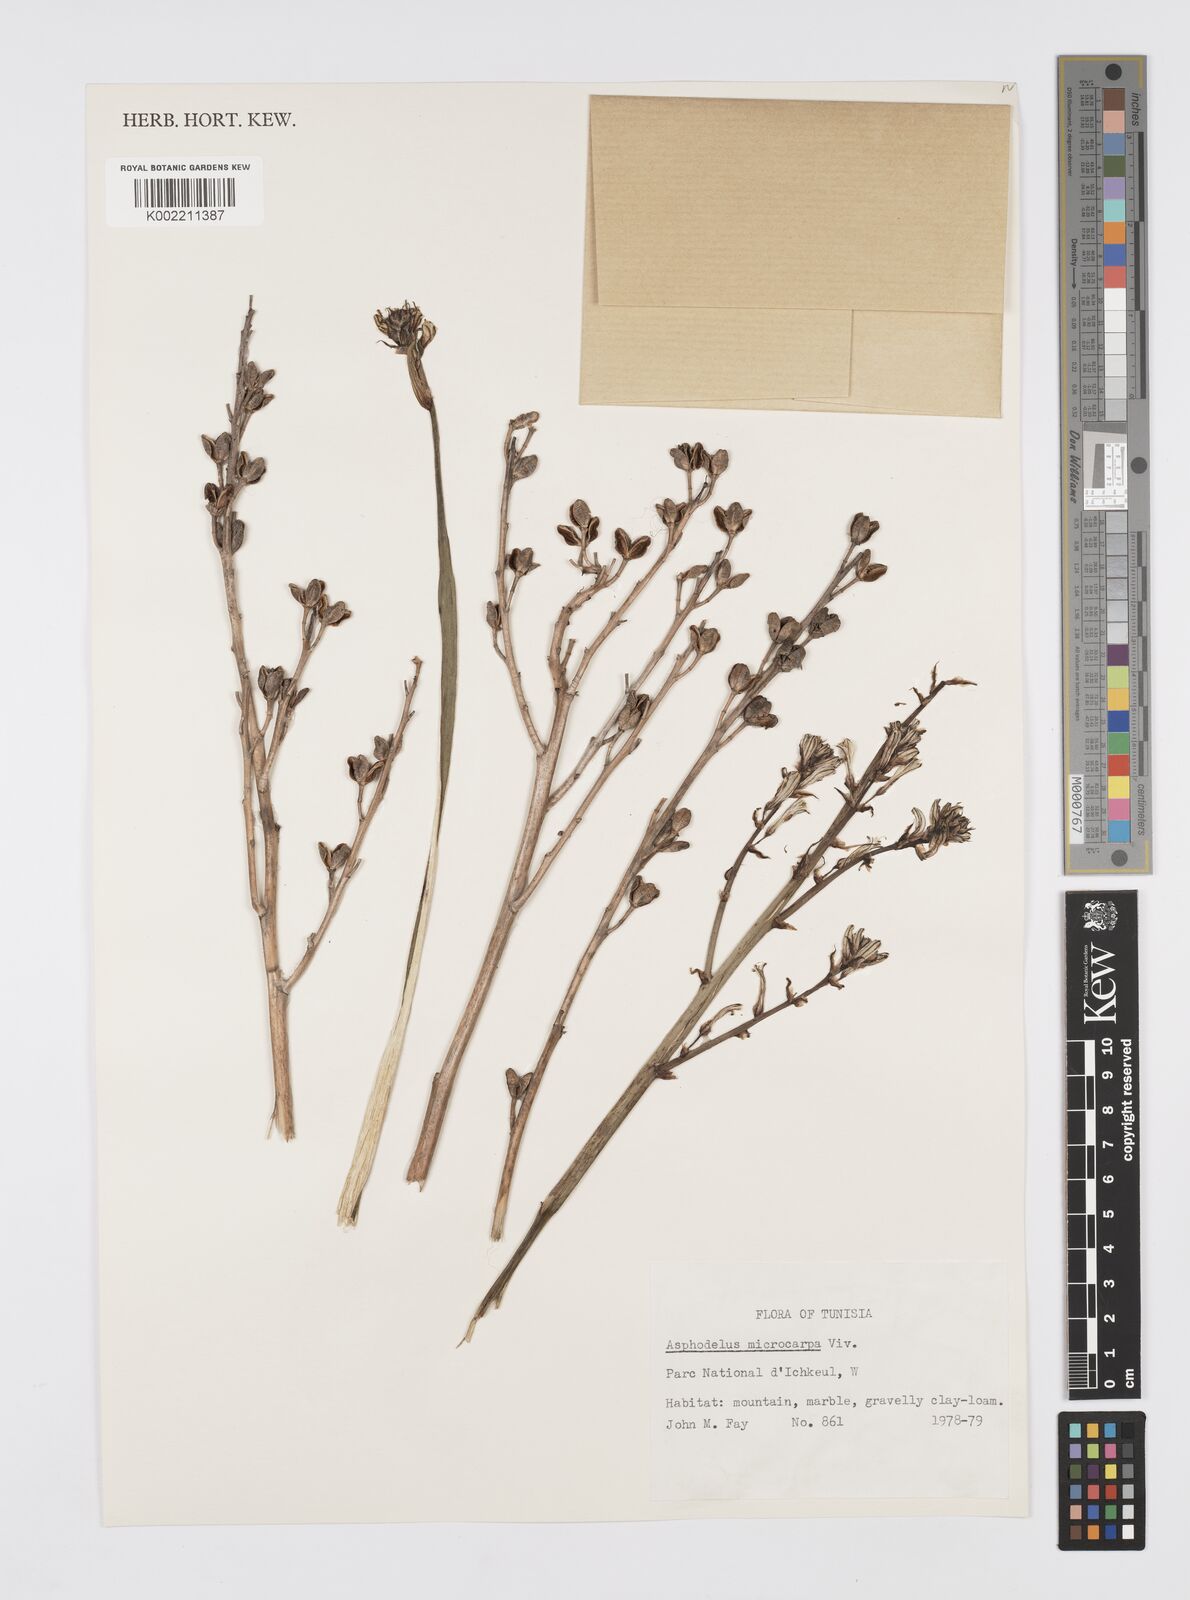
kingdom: Plantae
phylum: Tracheophyta
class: Liliopsida
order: Asparagales
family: Asphodelaceae
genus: Asphodelus
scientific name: Asphodelus ramosus
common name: Silverrod
